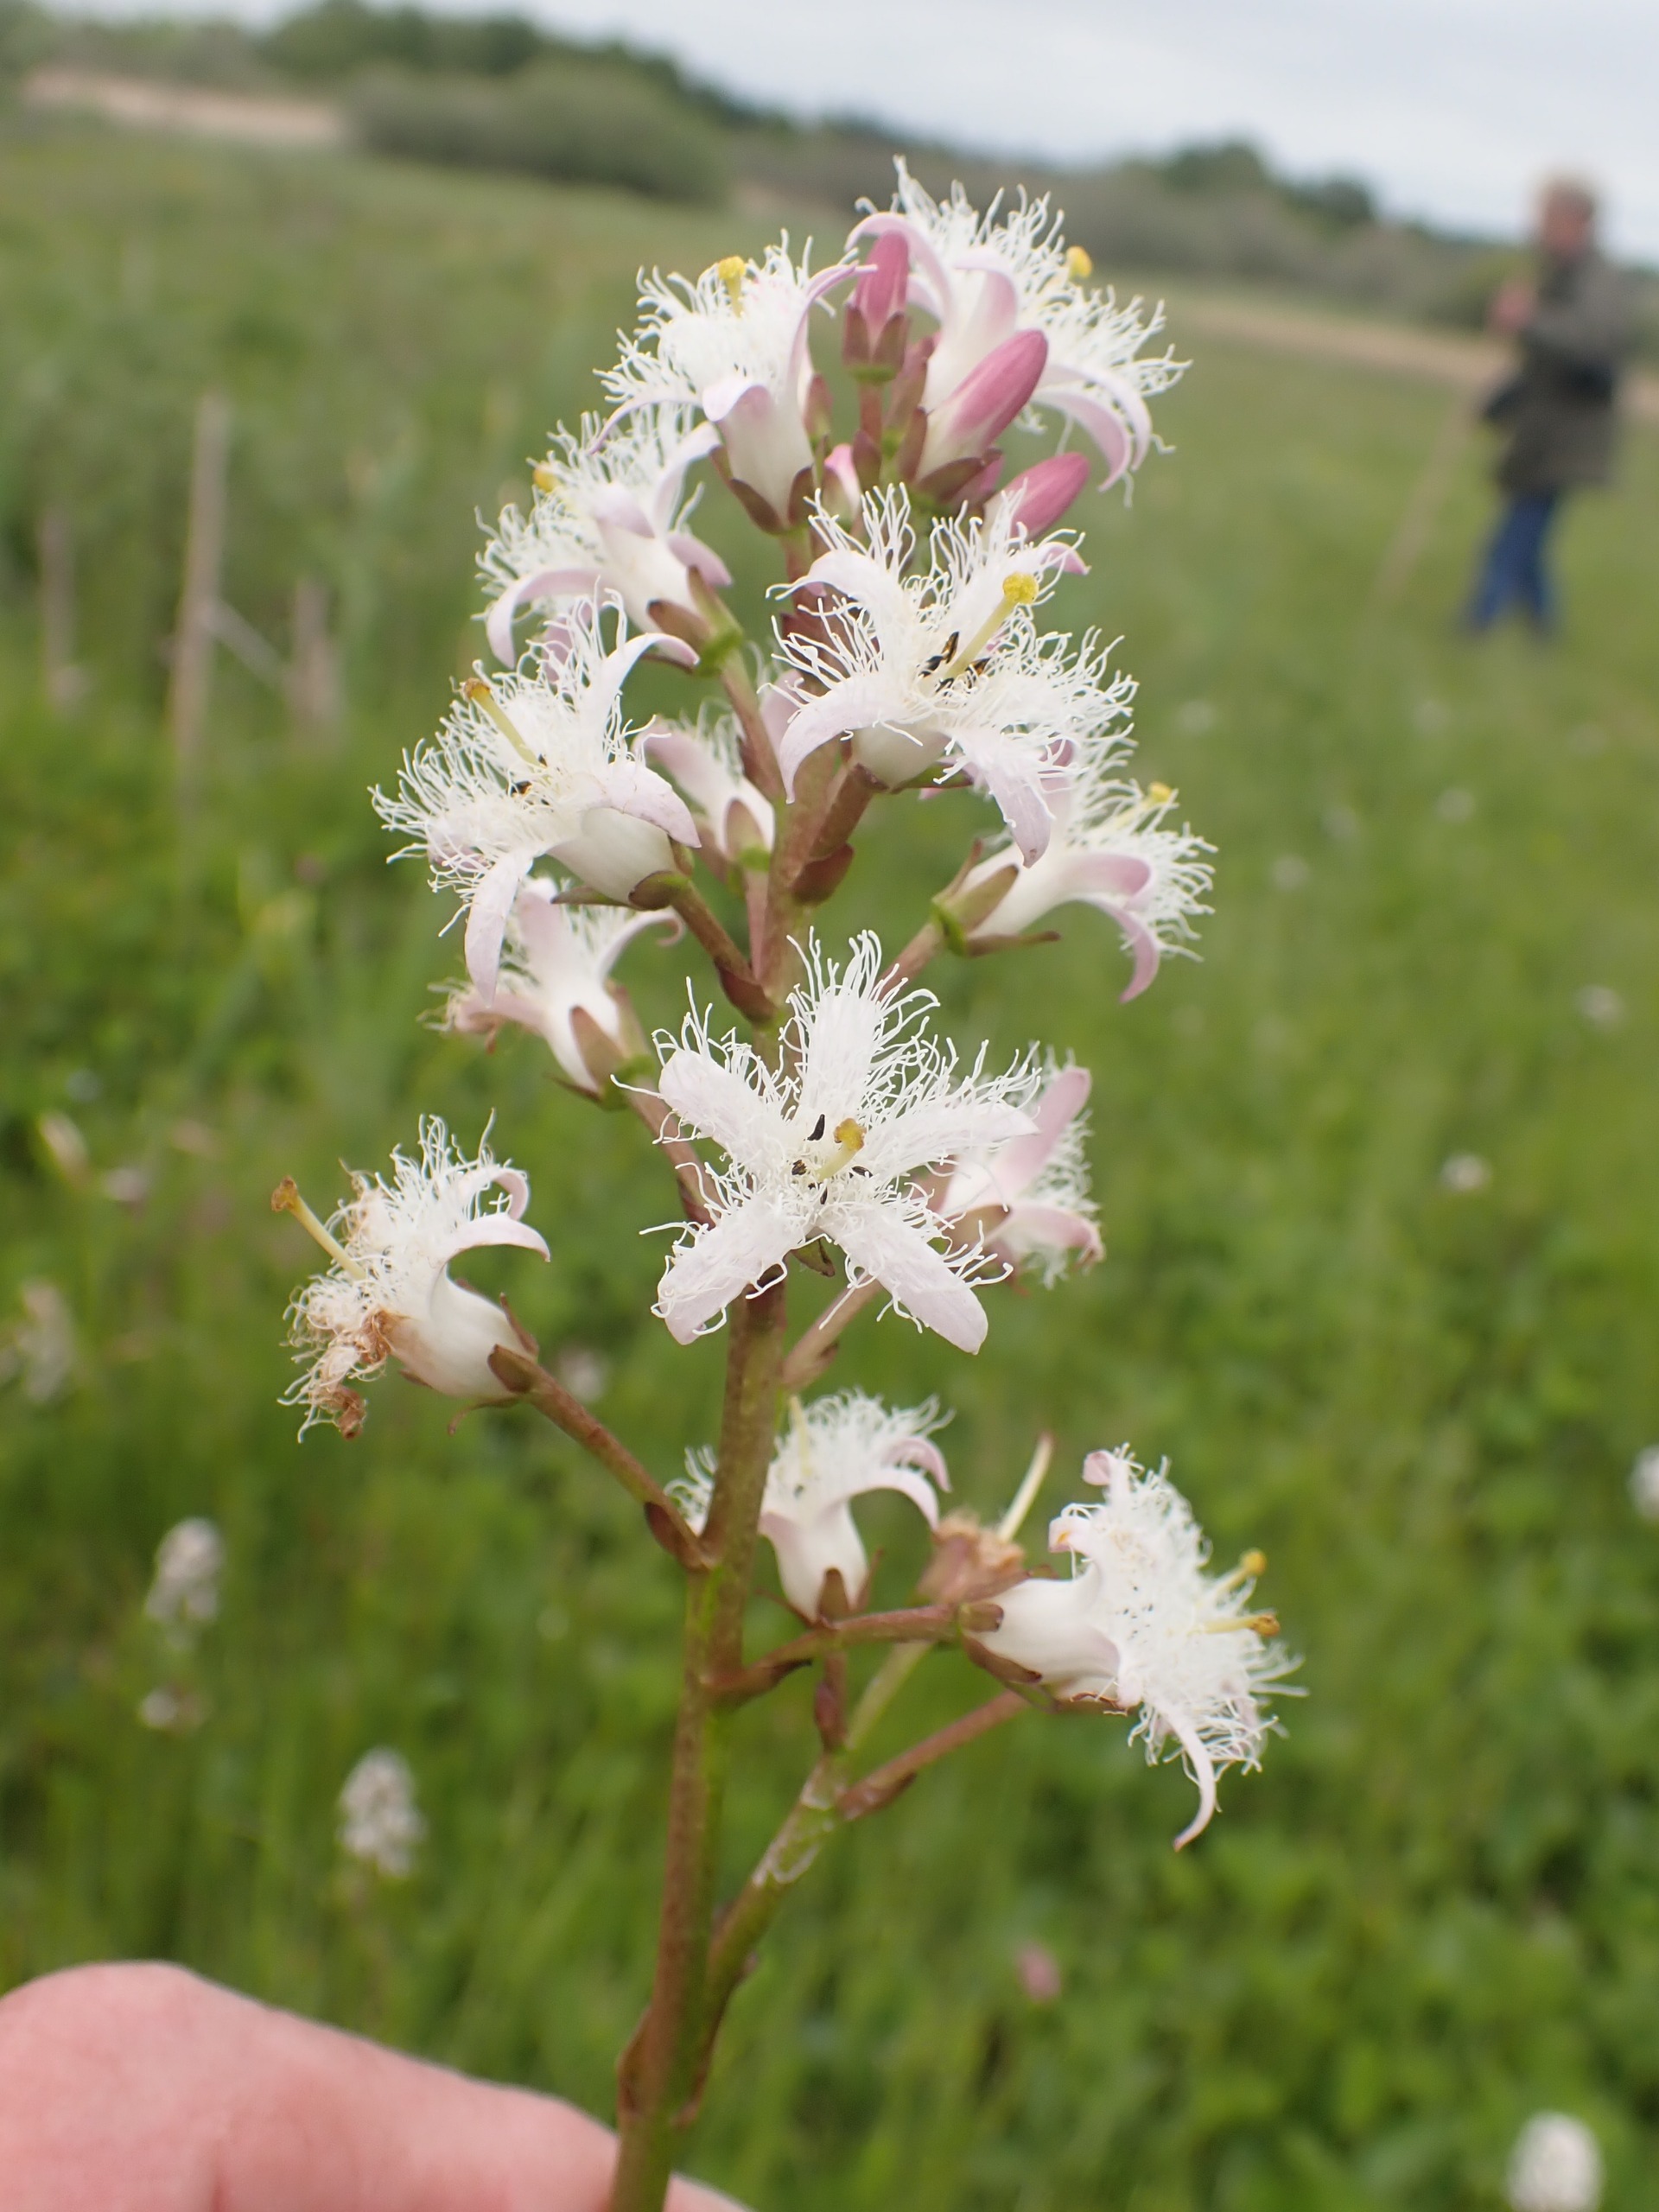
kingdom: Plantae
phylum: Tracheophyta
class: Magnoliopsida
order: Asterales
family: Menyanthaceae
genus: Menyanthes
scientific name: Menyanthes trifoliata
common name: Bukkeblad
